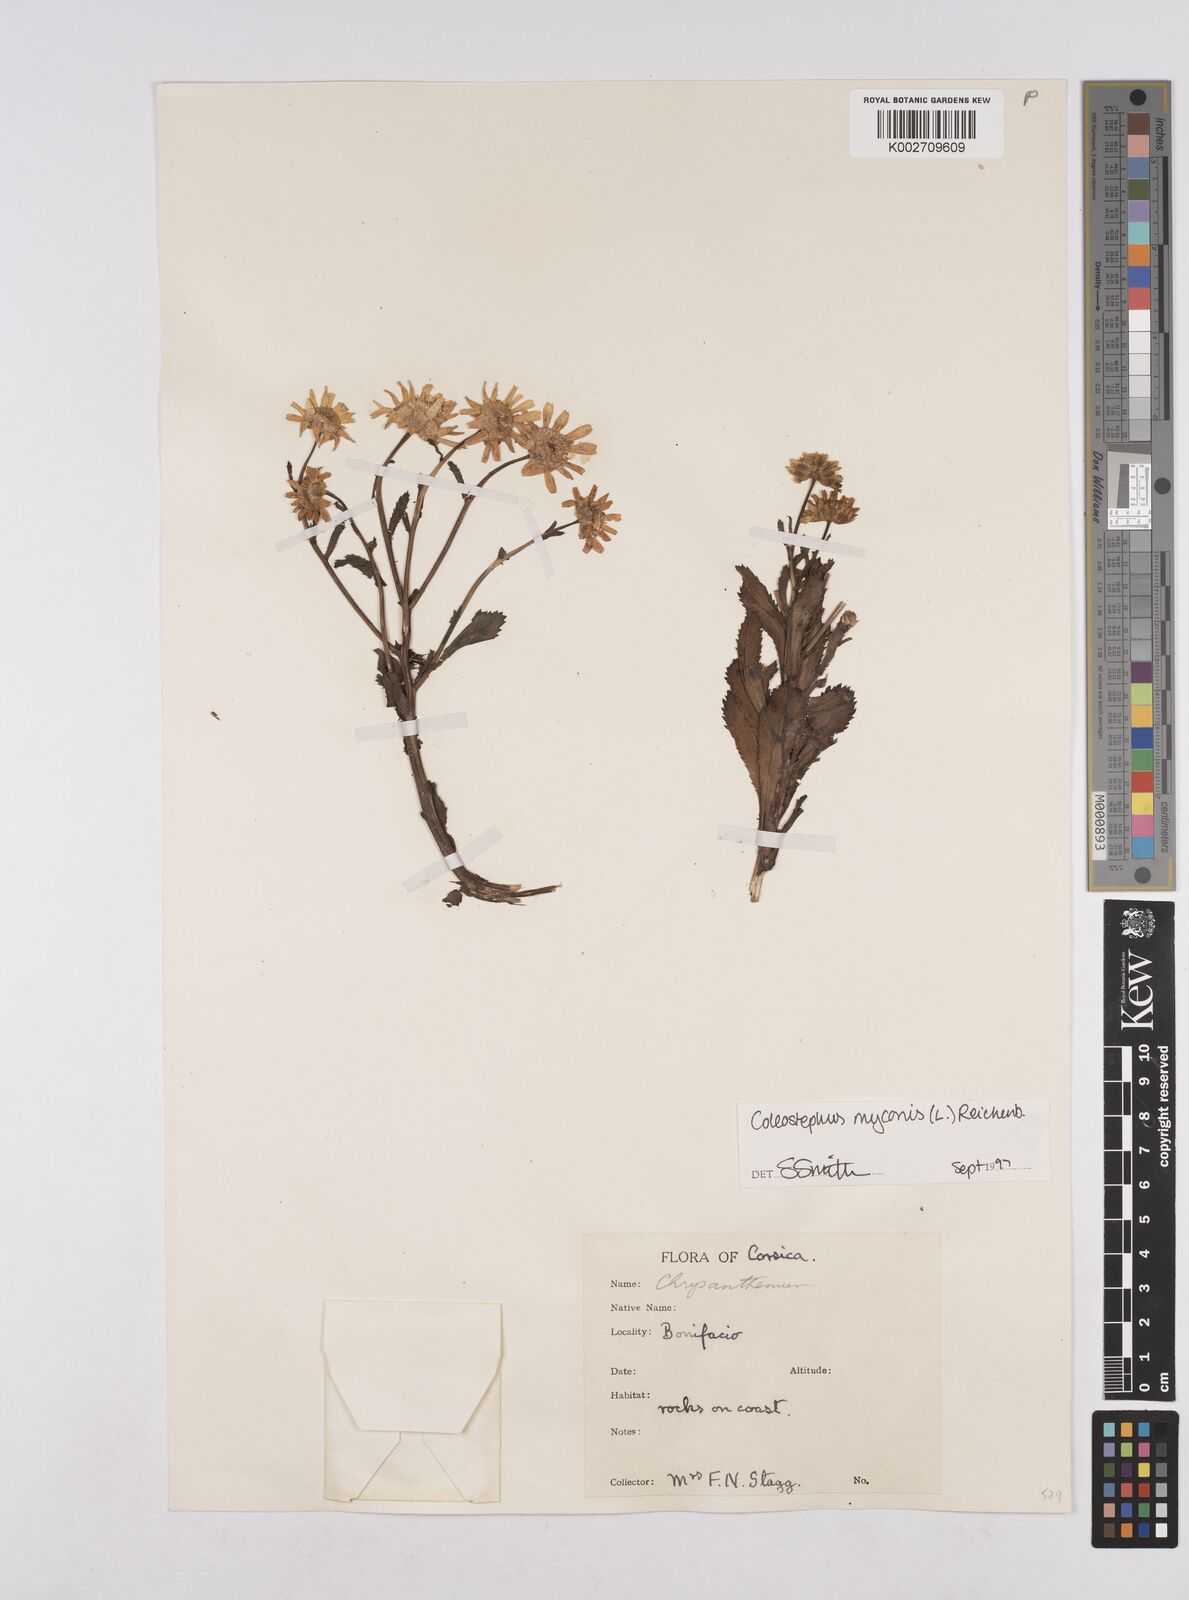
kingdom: Plantae
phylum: Tracheophyta
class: Magnoliopsida
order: Asterales
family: Asteraceae
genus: Coleostephus
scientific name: Coleostephus myconis
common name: Mediterranean marigold
